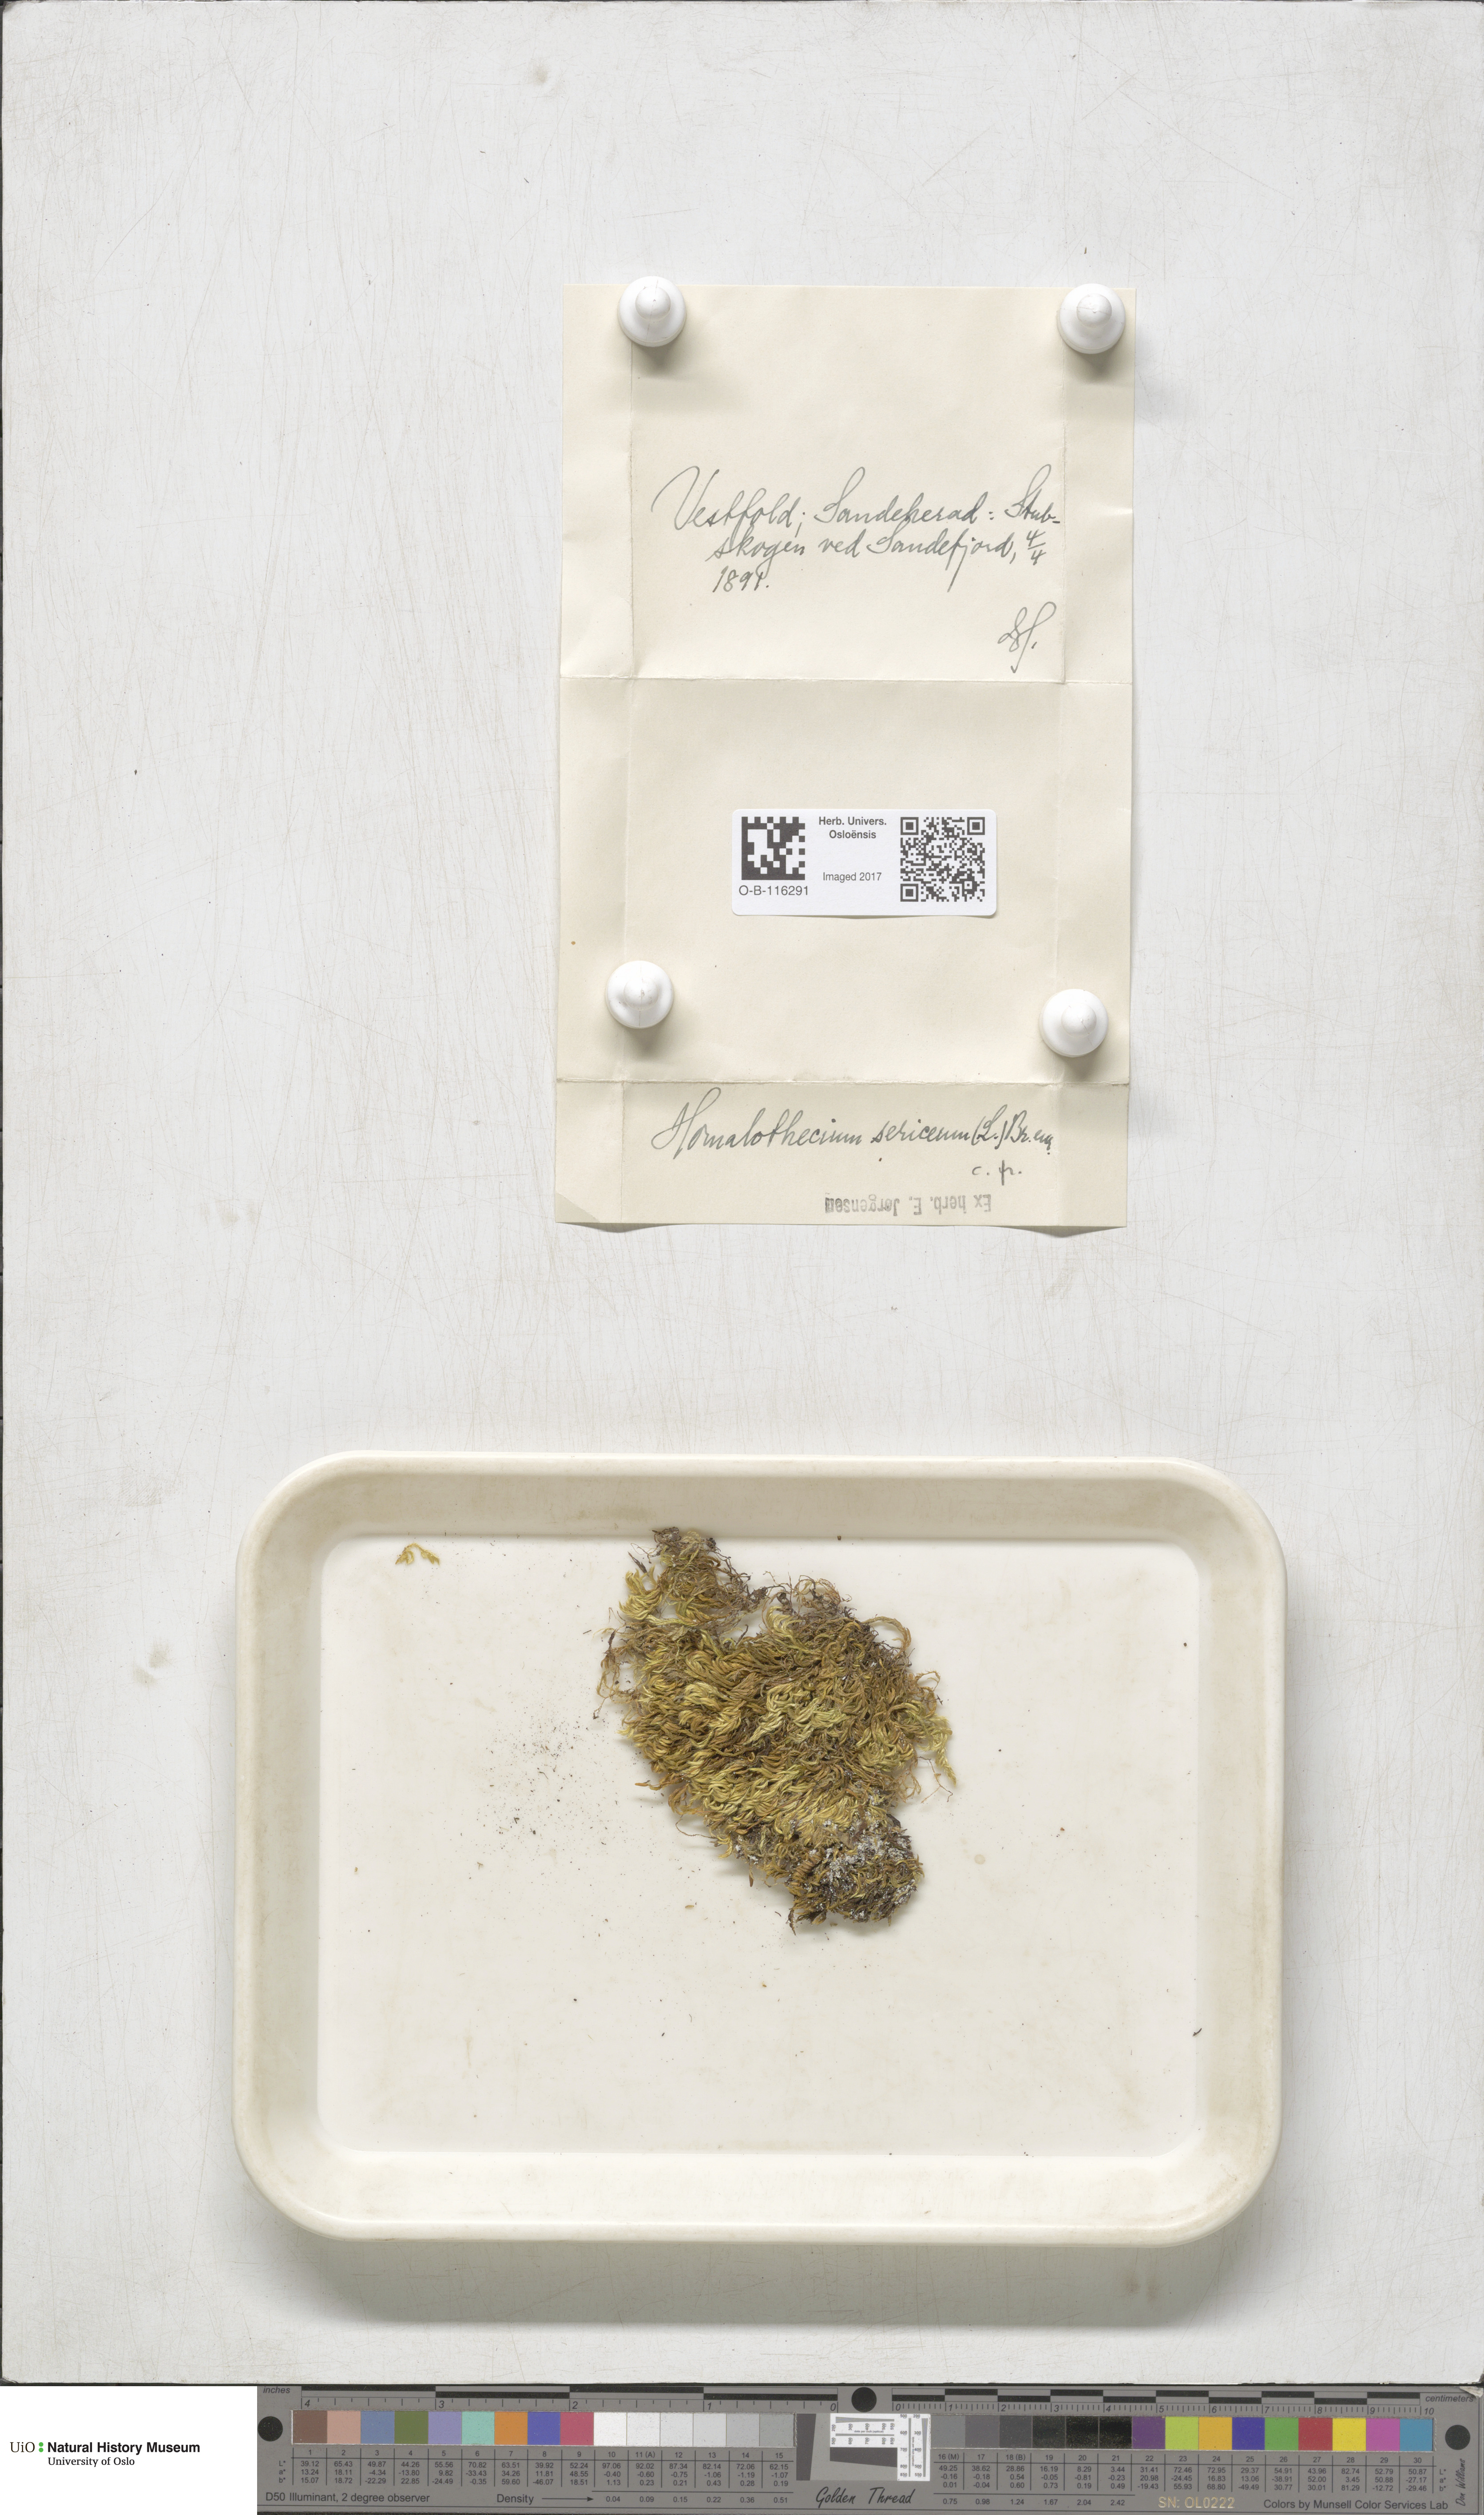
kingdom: Plantae
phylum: Bryophyta
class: Bryopsida
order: Hypnales
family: Brachytheciaceae
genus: Homalothecium
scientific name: Homalothecium sericeum
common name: Silky wall feather-moss
